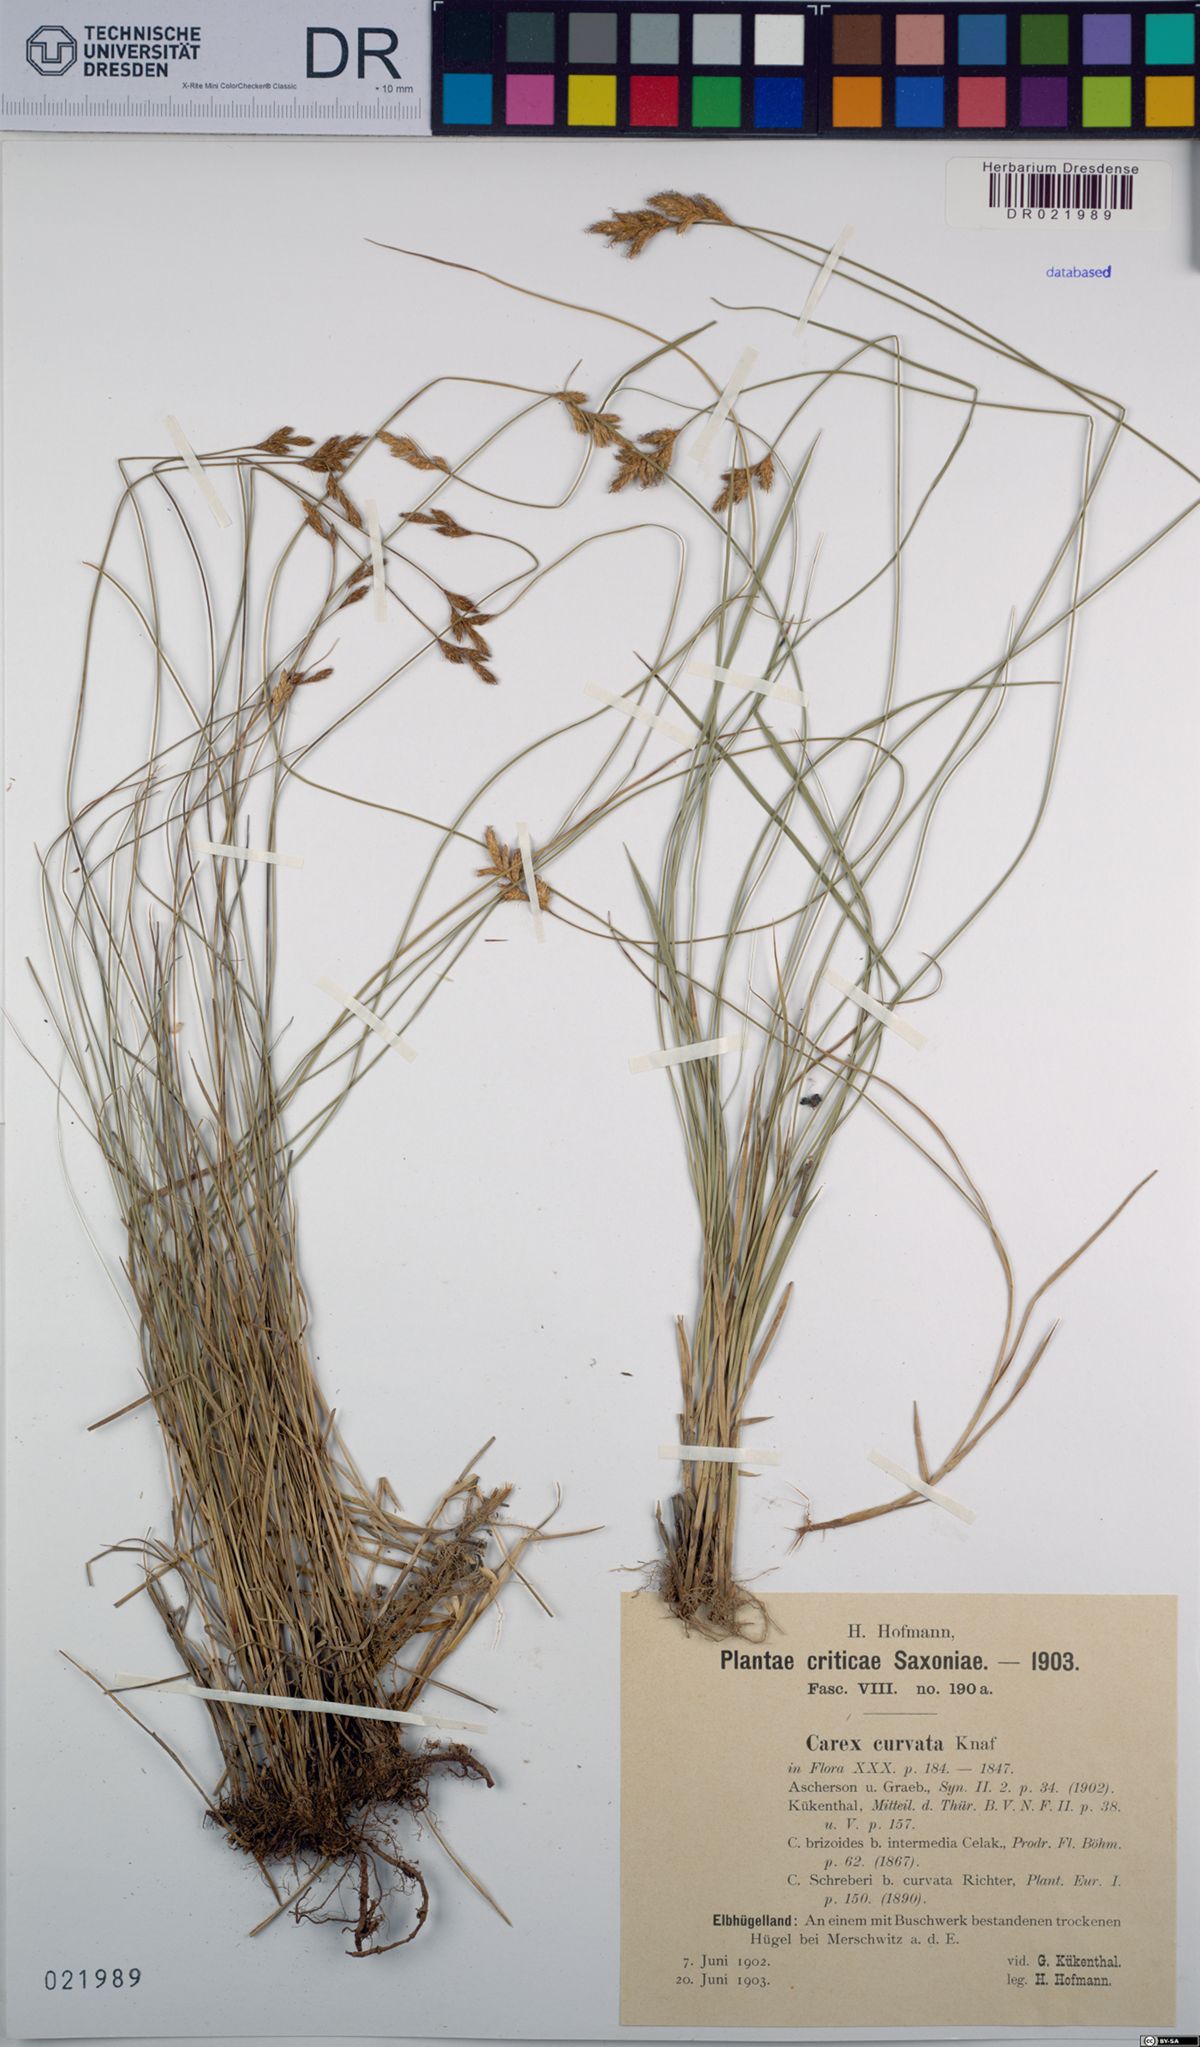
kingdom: Plantae
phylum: Tracheophyta
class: Liliopsida
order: Poales
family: Cyperaceae
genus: Carex
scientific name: Carex curvata
